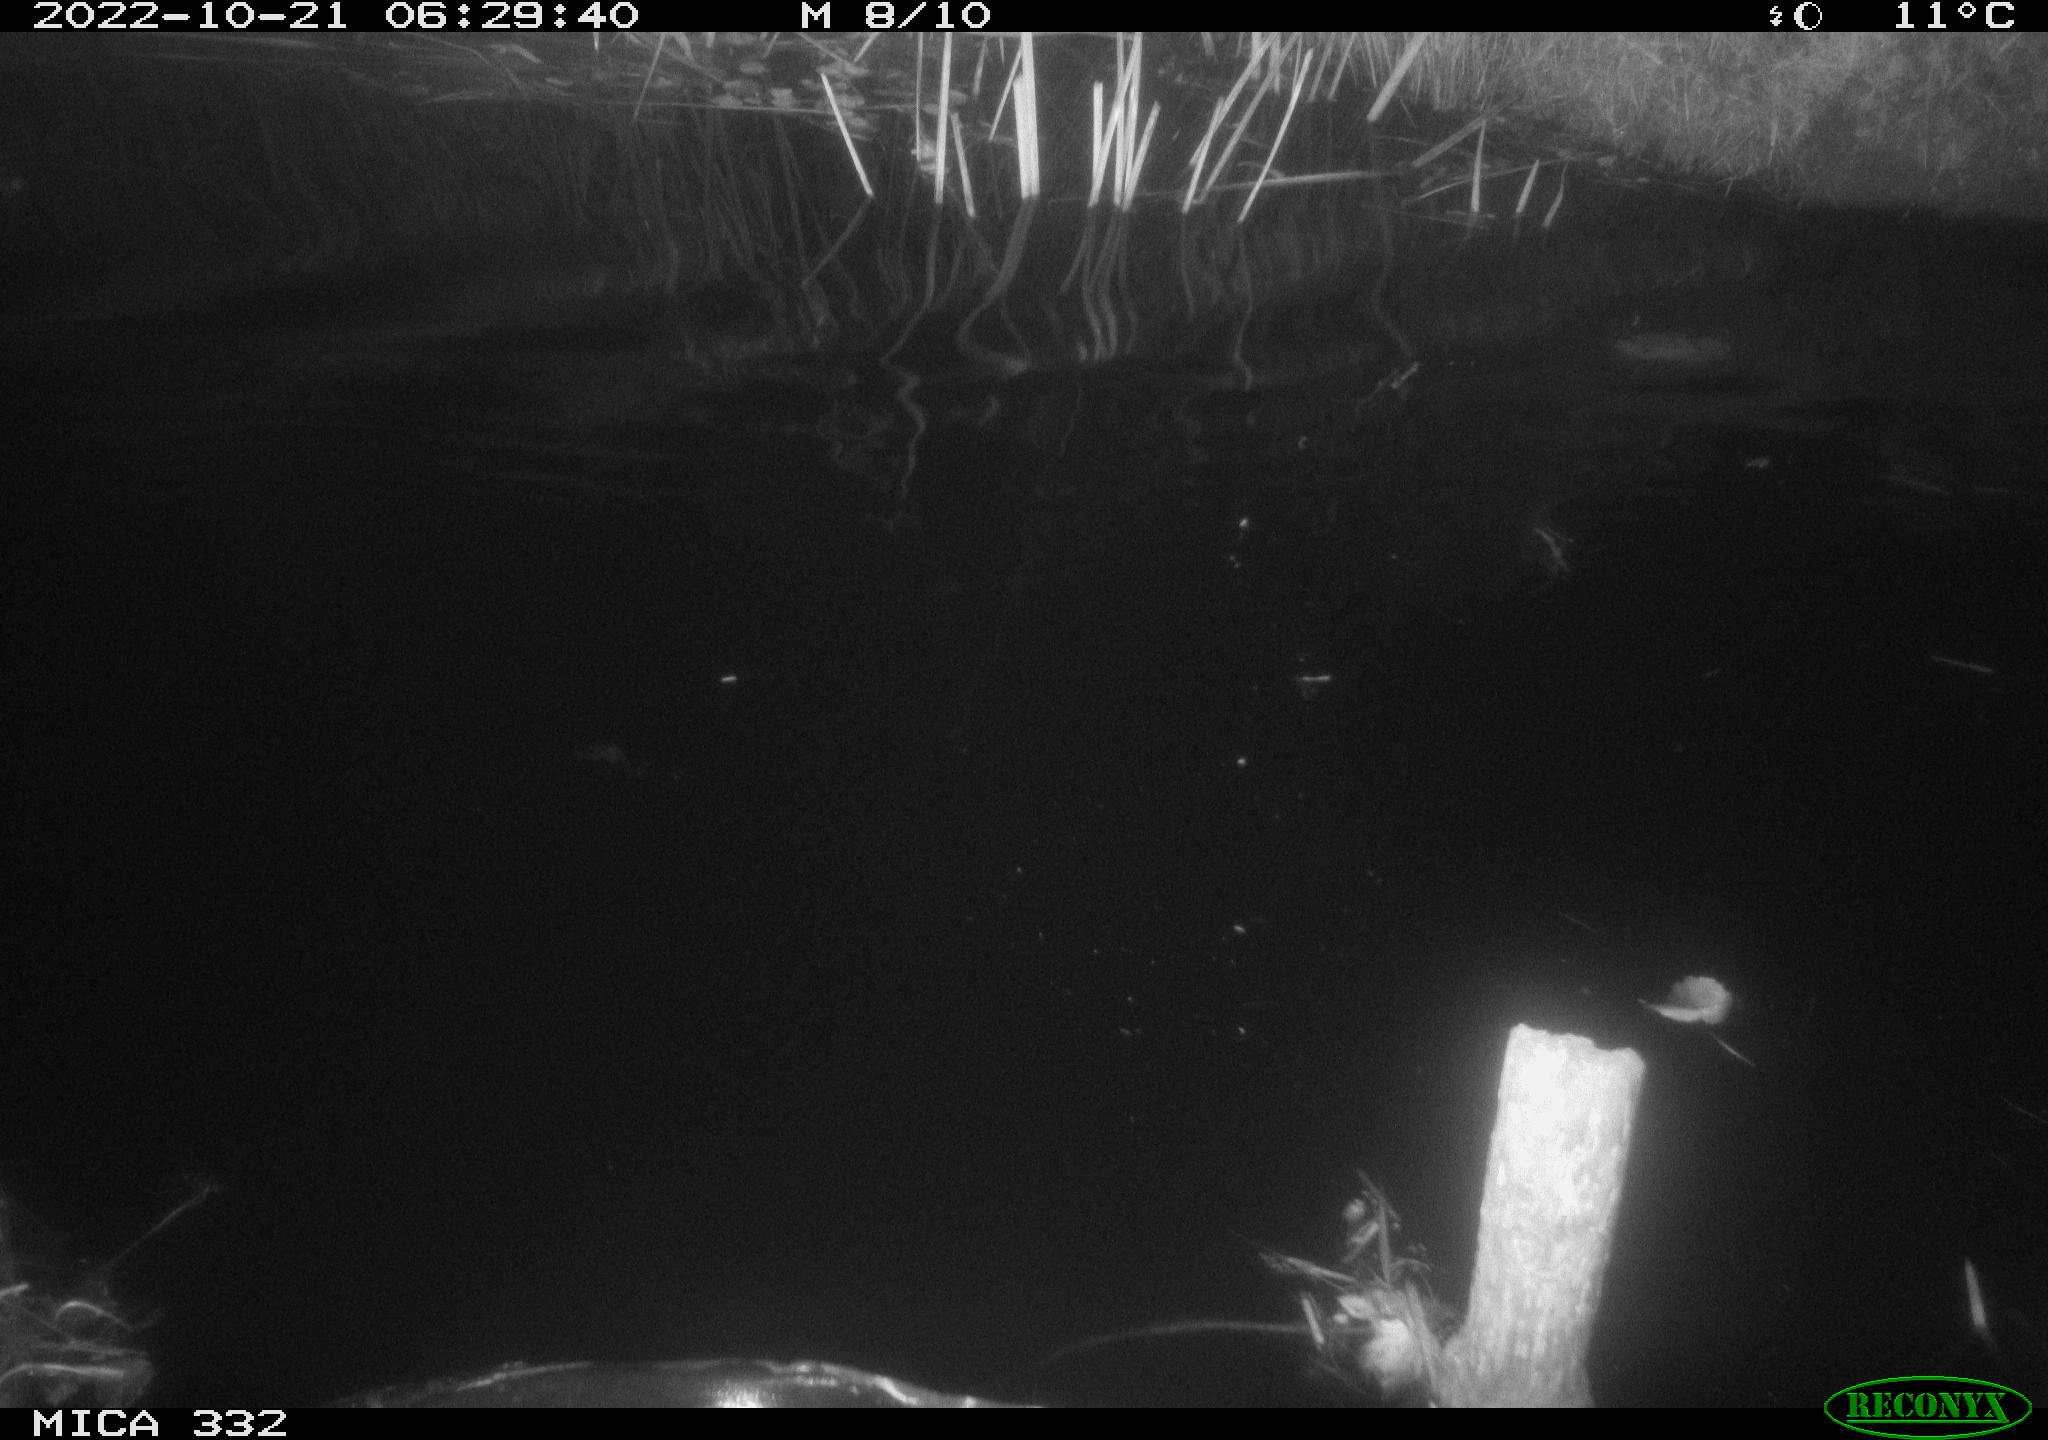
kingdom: Animalia
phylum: Chordata
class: Mammalia
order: Carnivora
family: Mustelidae
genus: Lutra
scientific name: Lutra lutra
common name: European otter
